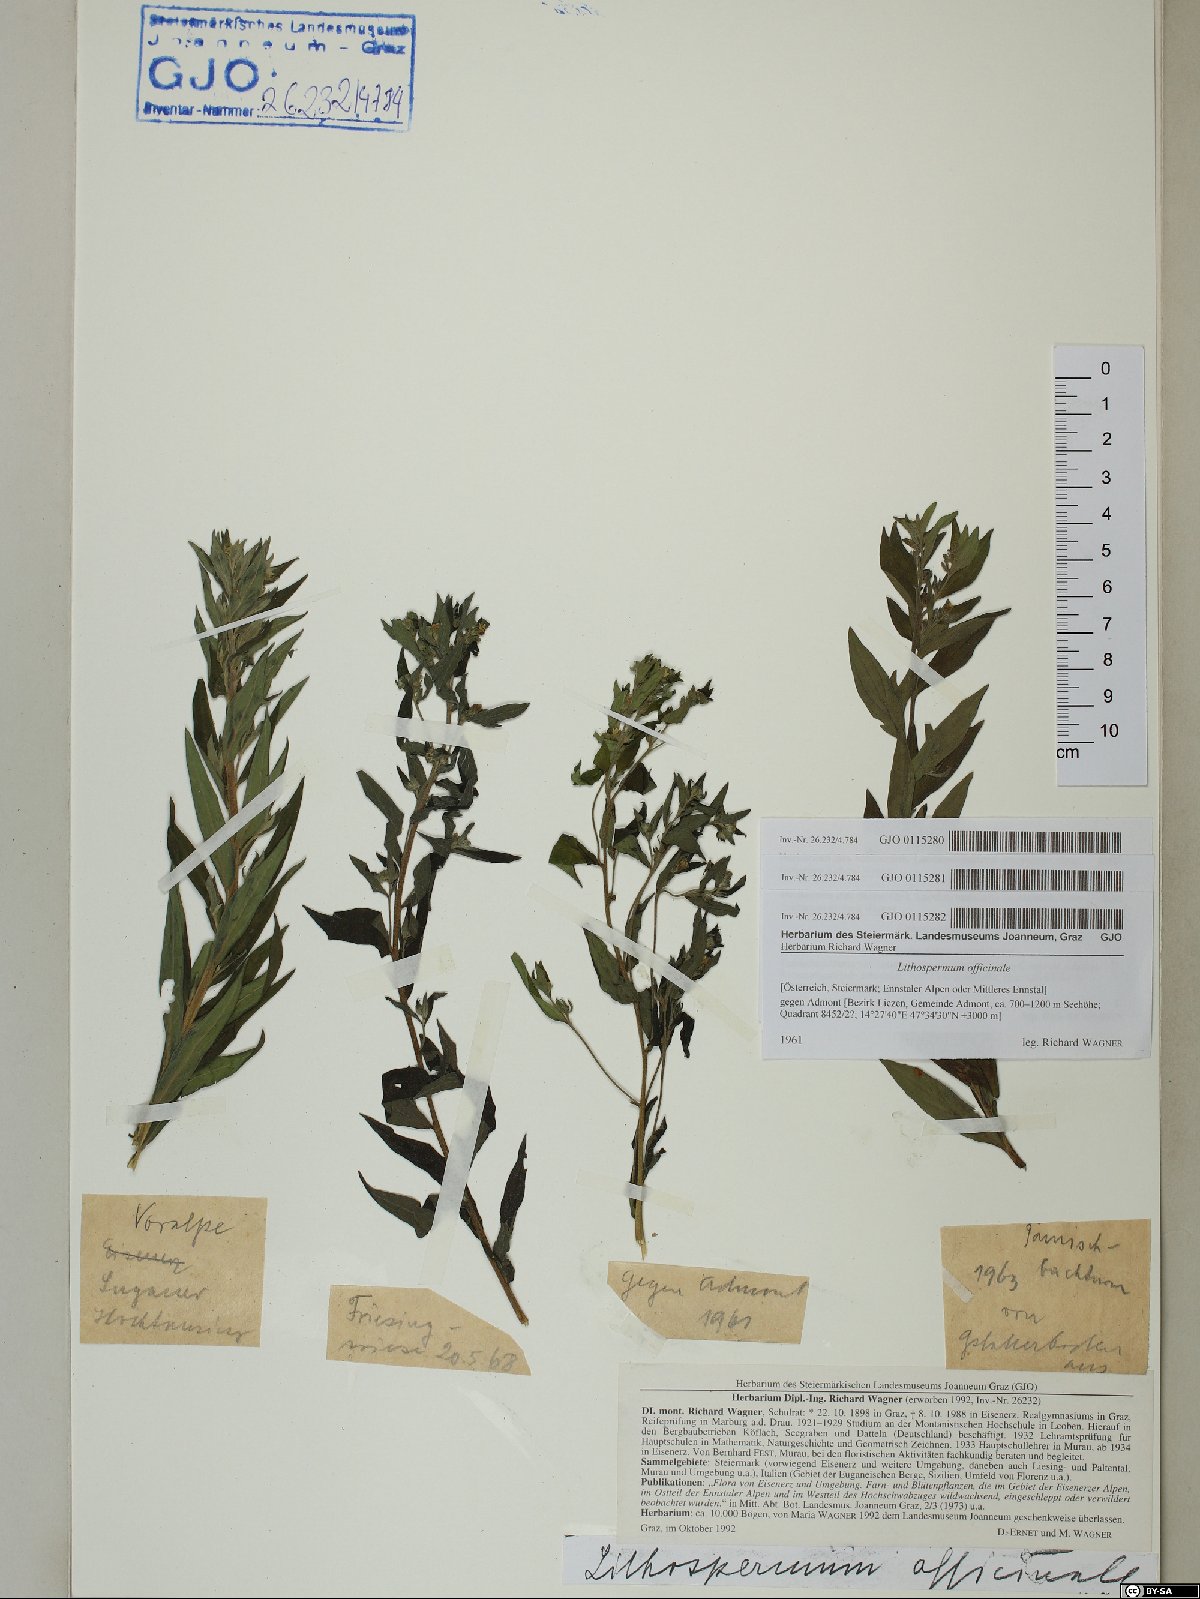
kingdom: Plantae
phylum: Tracheophyta
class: Magnoliopsida
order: Boraginales
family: Boraginaceae
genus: Lithospermum
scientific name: Lithospermum officinale
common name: Common gromwell
